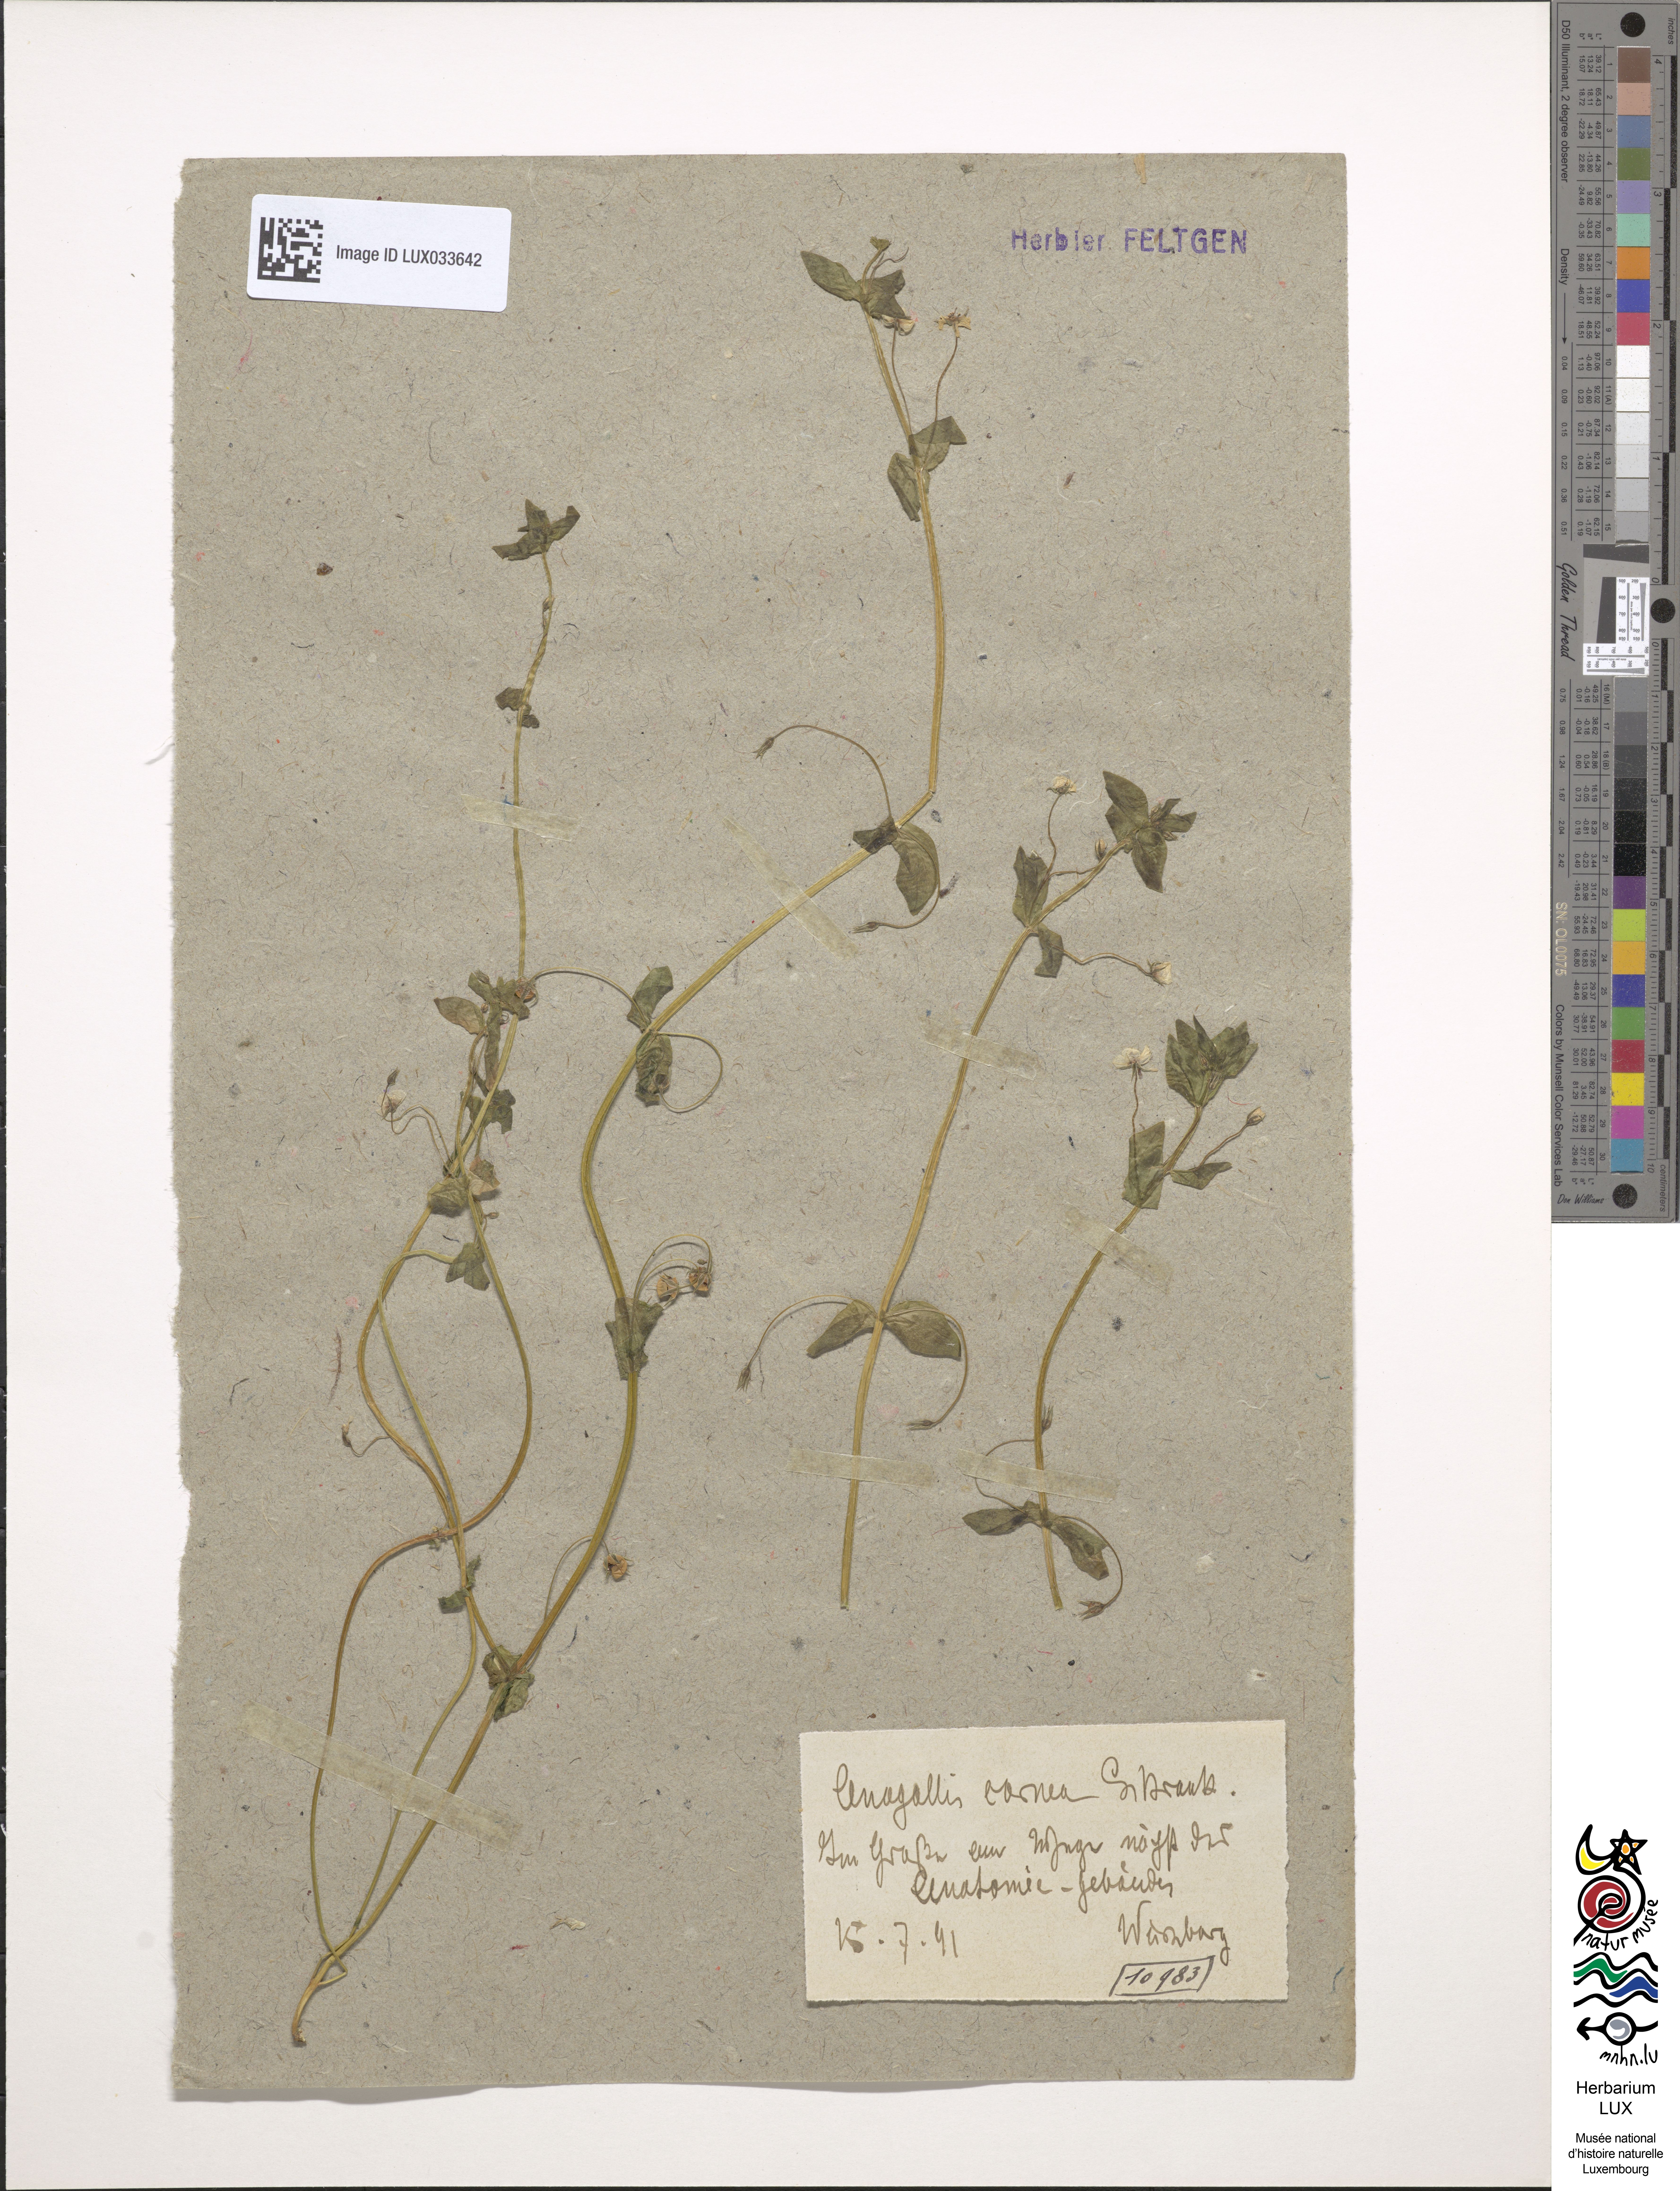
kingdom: Plantae
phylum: Tracheophyta
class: Magnoliopsida
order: Ericales
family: Primulaceae
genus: Lysimachia
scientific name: Lysimachia arvensis
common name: Scarlet pimpernel
